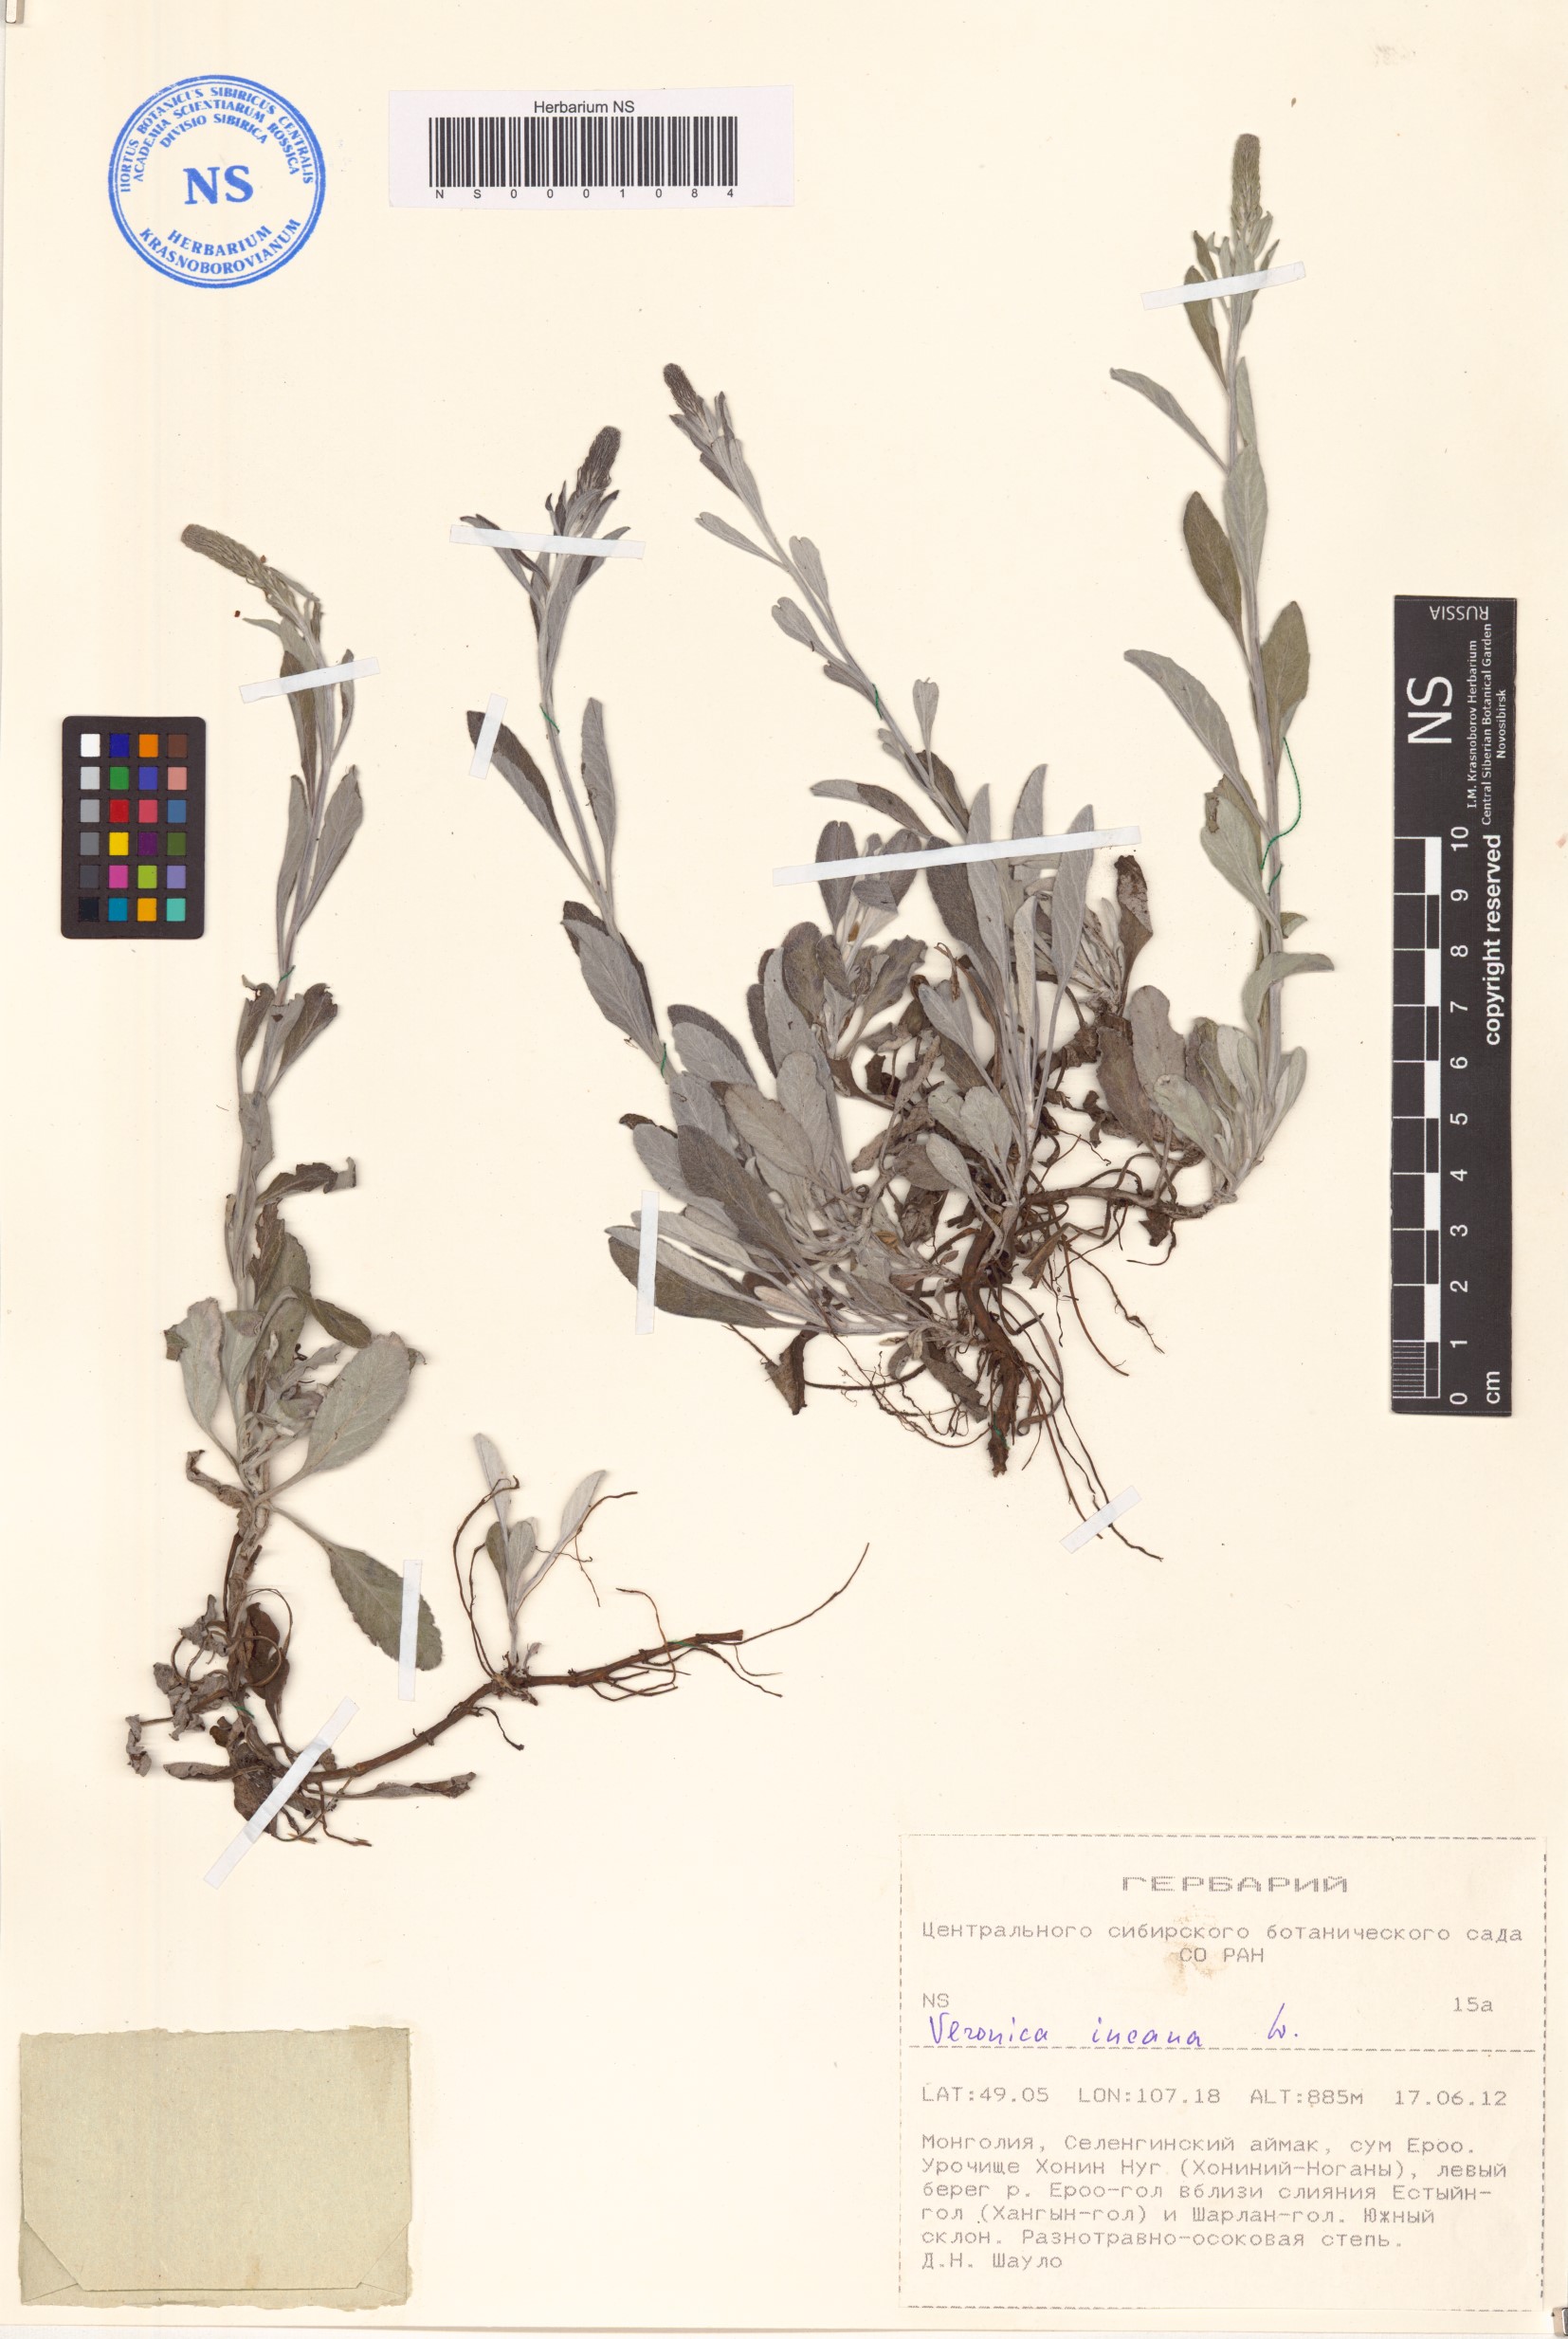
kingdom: Plantae
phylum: Tracheophyta
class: Magnoliopsida
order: Lamiales
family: Plantaginaceae
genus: Veronica
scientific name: Veronica incana
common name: Silver speedwell
